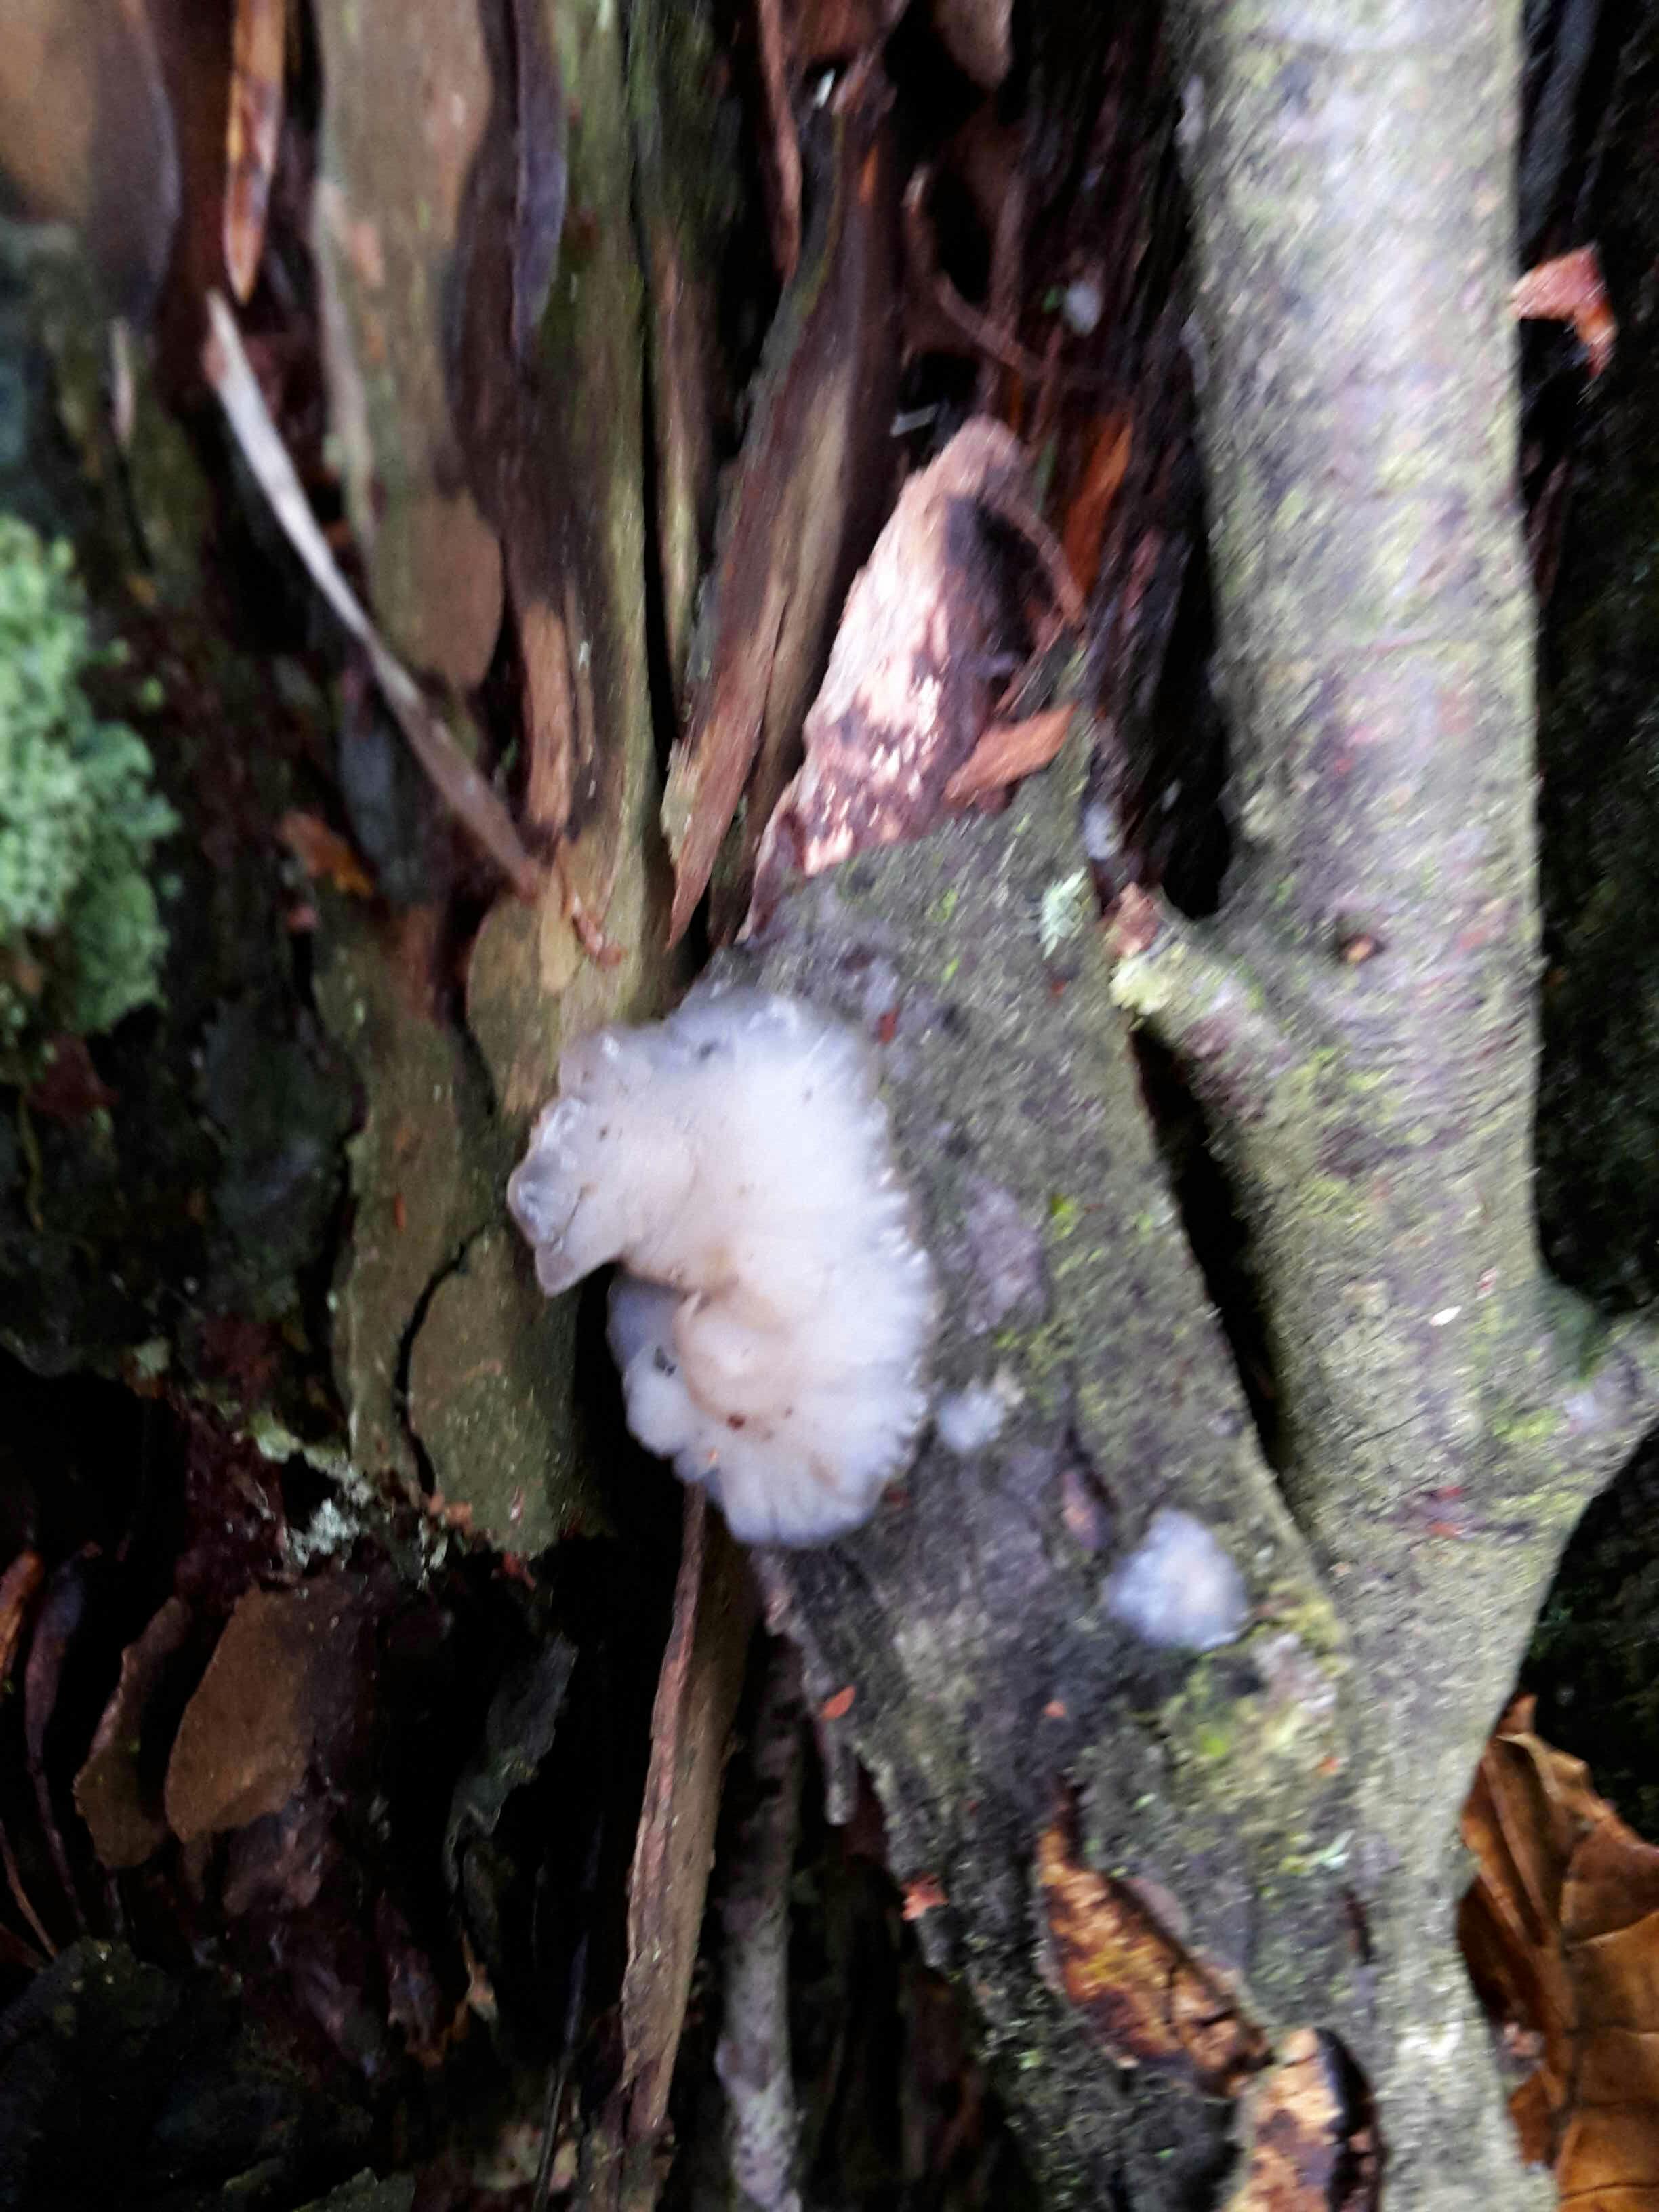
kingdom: Fungi
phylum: Basidiomycota
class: Agaricomycetes
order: Auriculariales
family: Auriculariaceae
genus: Exidia
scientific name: Exidia thuretiana
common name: hvidlig bævretop
